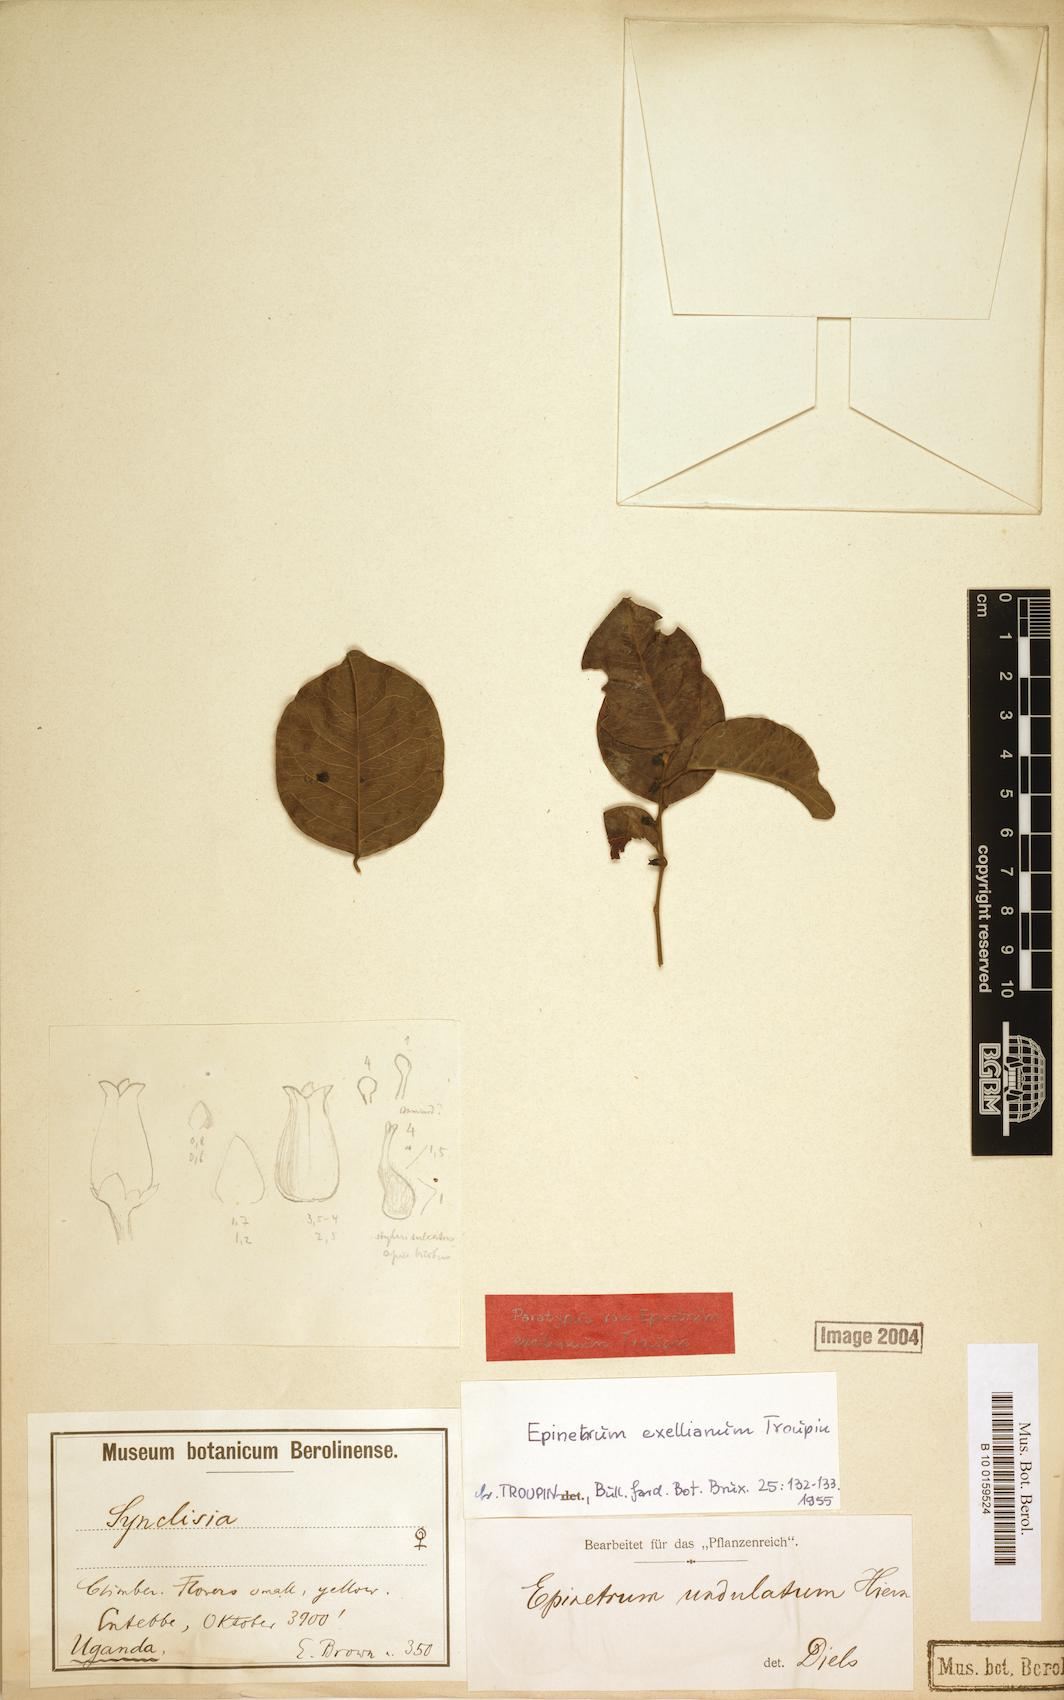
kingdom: Plantae
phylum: Tracheophyta
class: Magnoliopsida
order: Ranunculales
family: Menispermaceae
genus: Albertisia
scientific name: Albertisia exelliana
